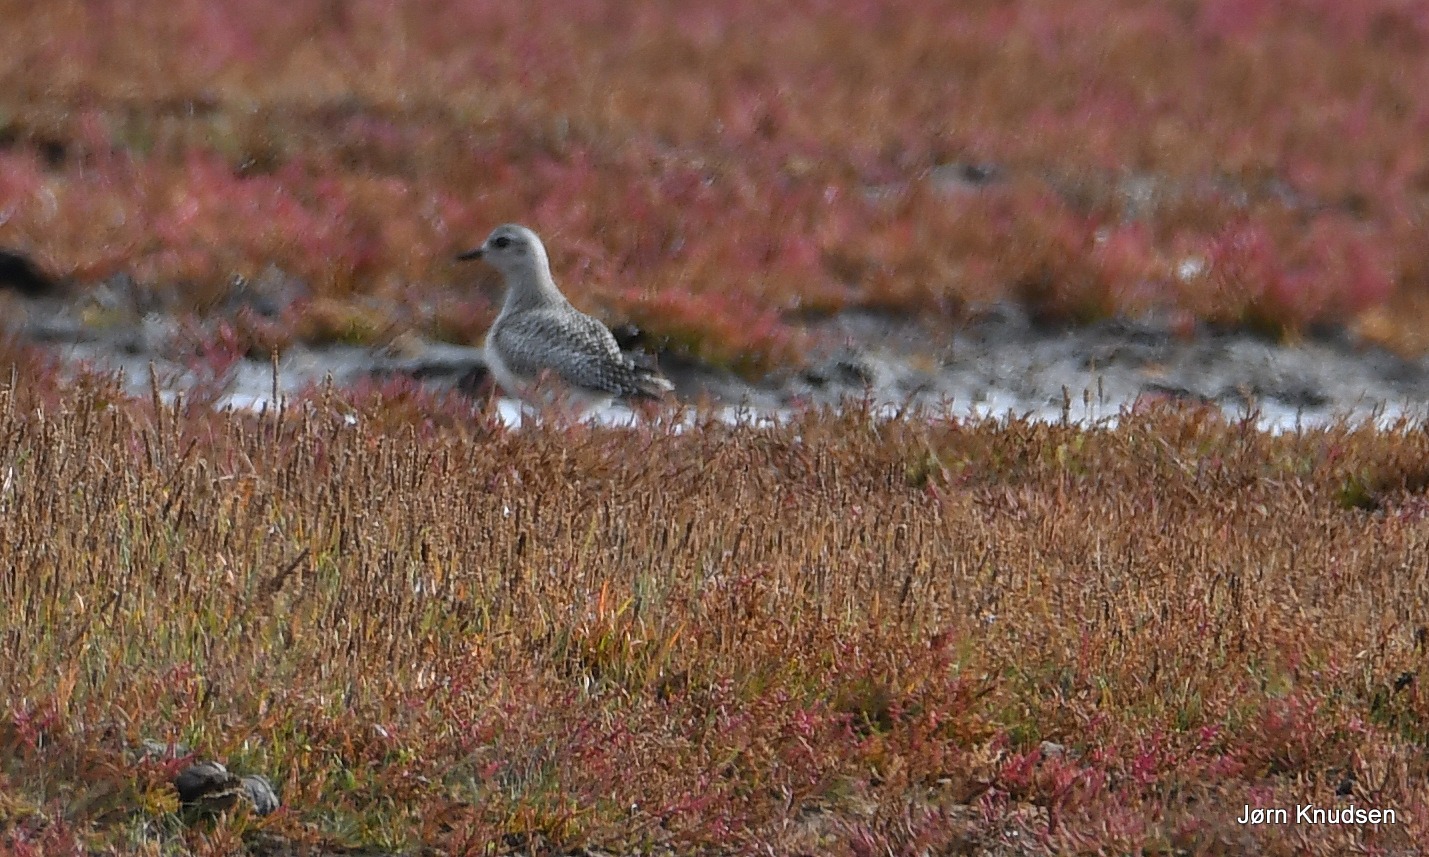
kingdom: Animalia
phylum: Chordata
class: Aves
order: Charadriiformes
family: Charadriidae
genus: Pluvialis
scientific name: Pluvialis squatarola
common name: Strandhjejle
